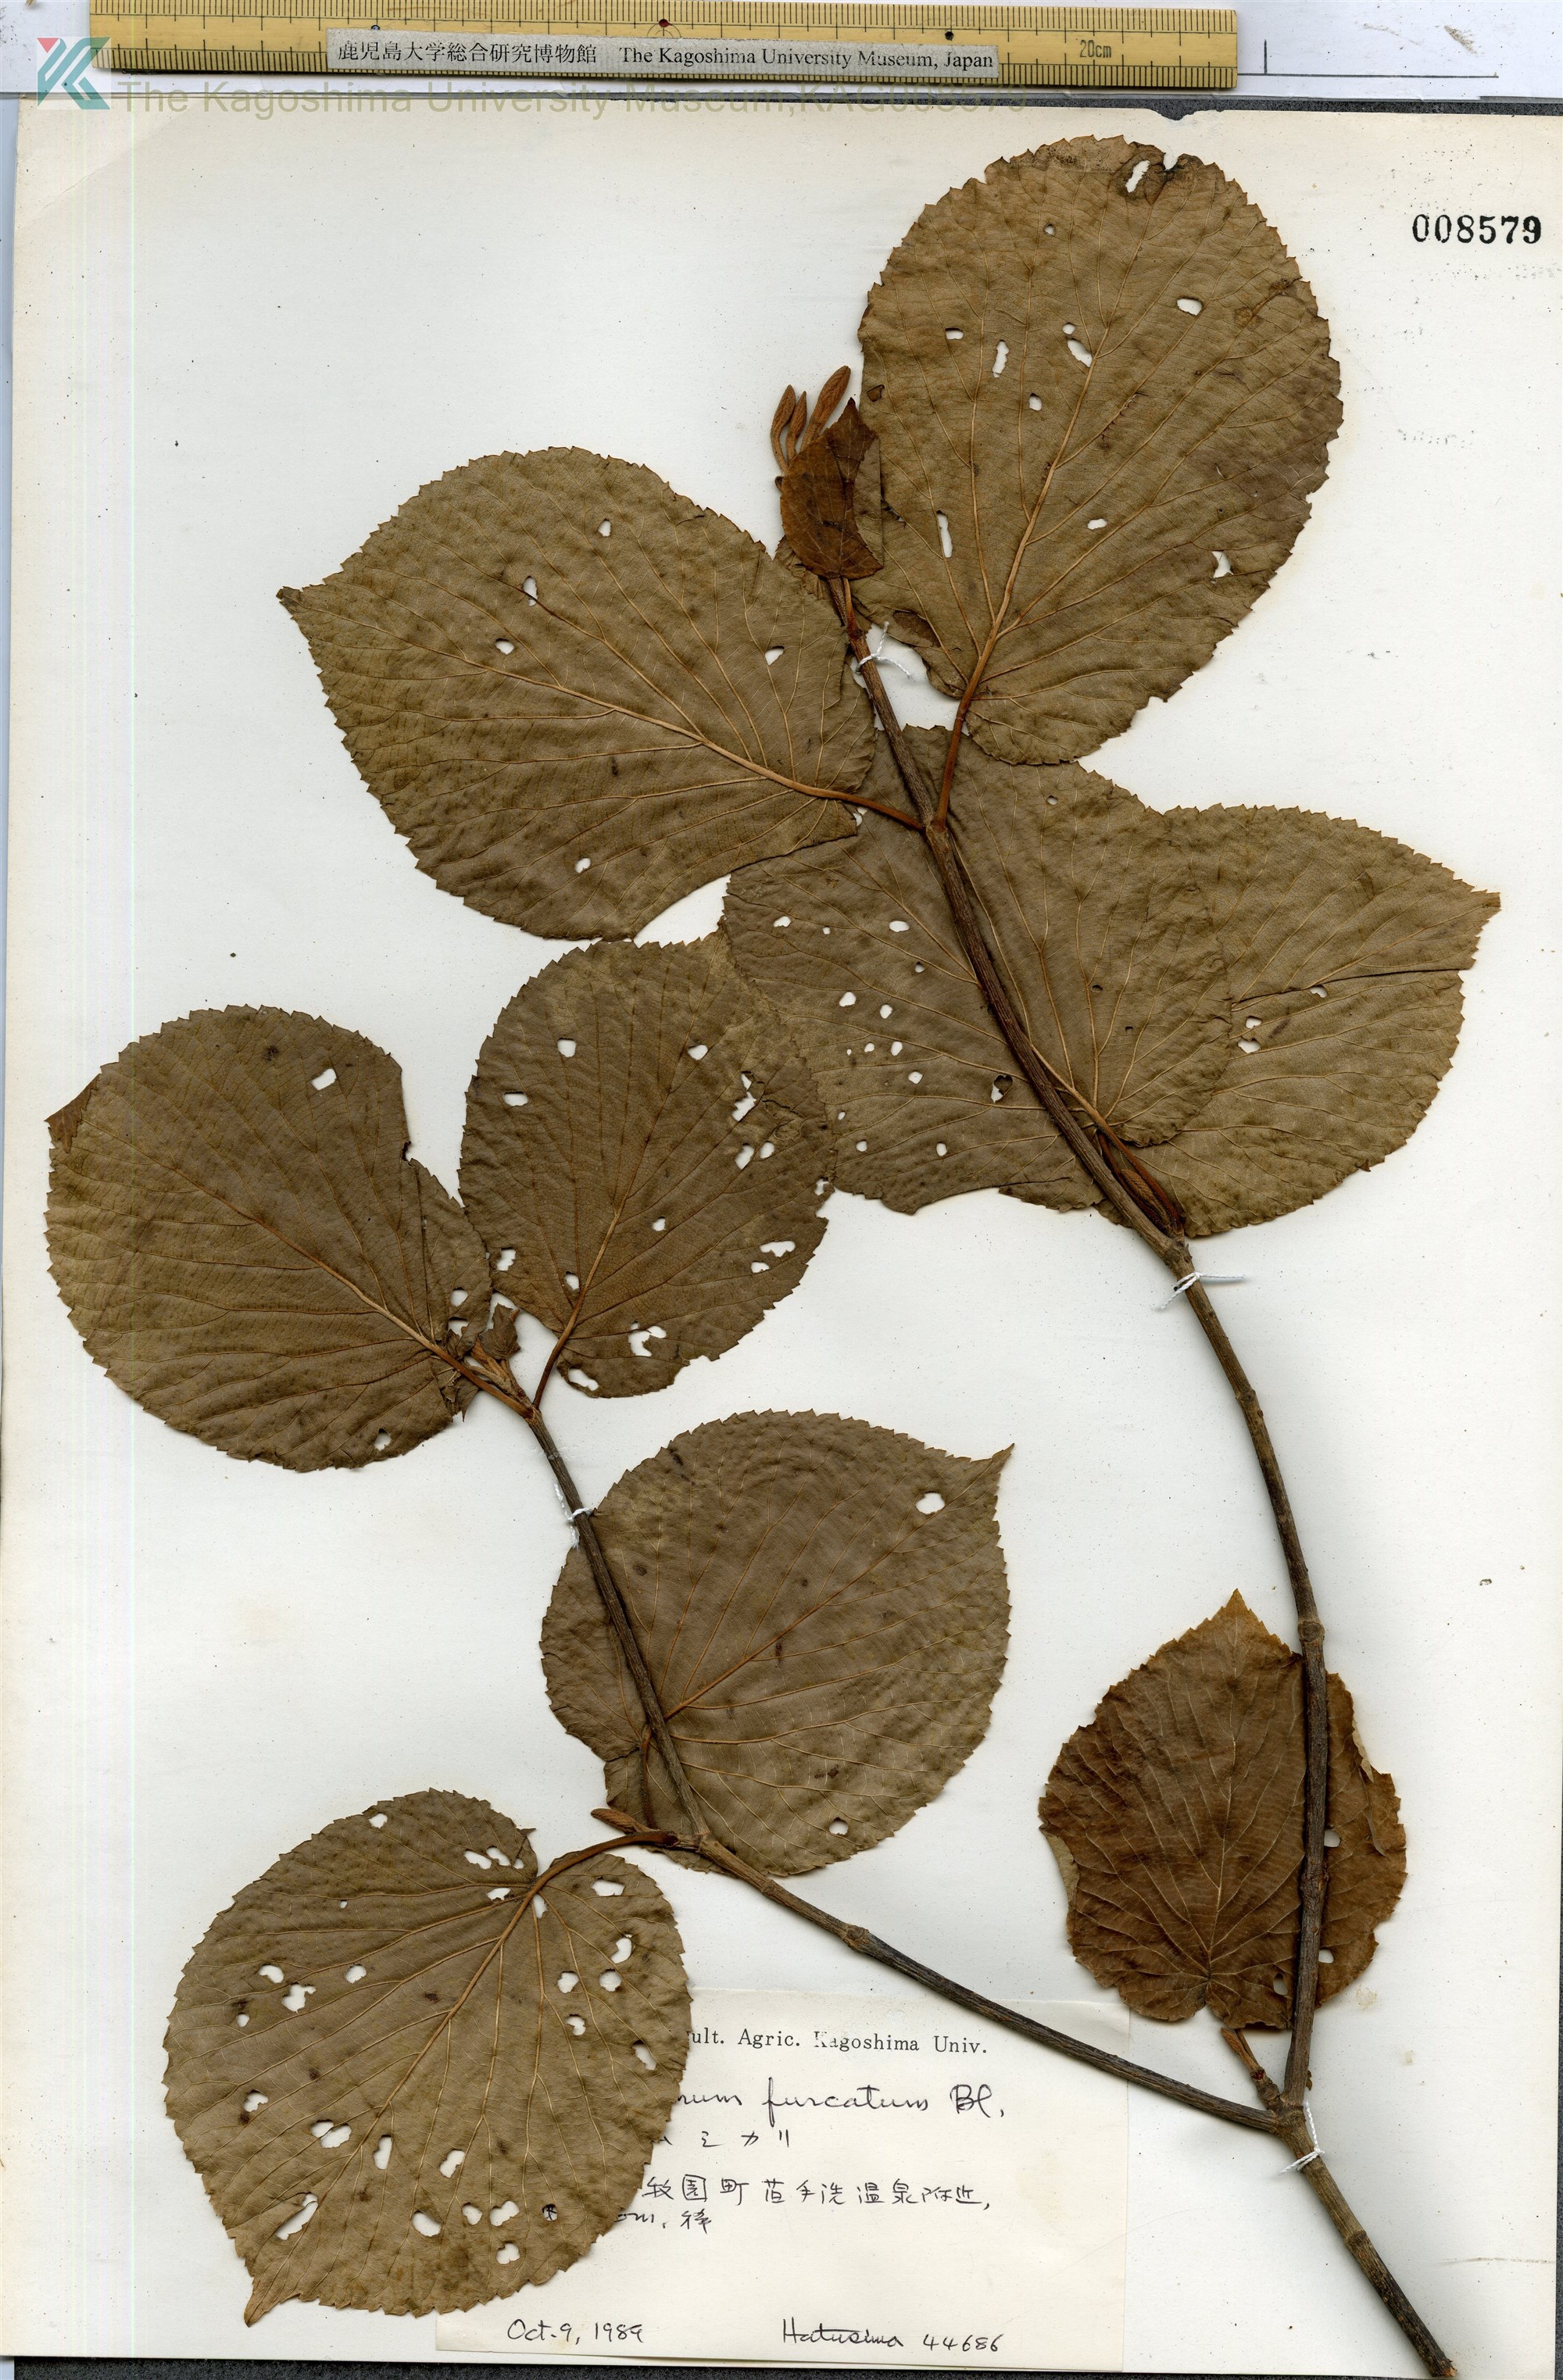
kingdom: Plantae
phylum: Tracheophyta
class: Magnoliopsida
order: Dipsacales
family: Viburnaceae
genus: Viburnum
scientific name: Viburnum furcatum
